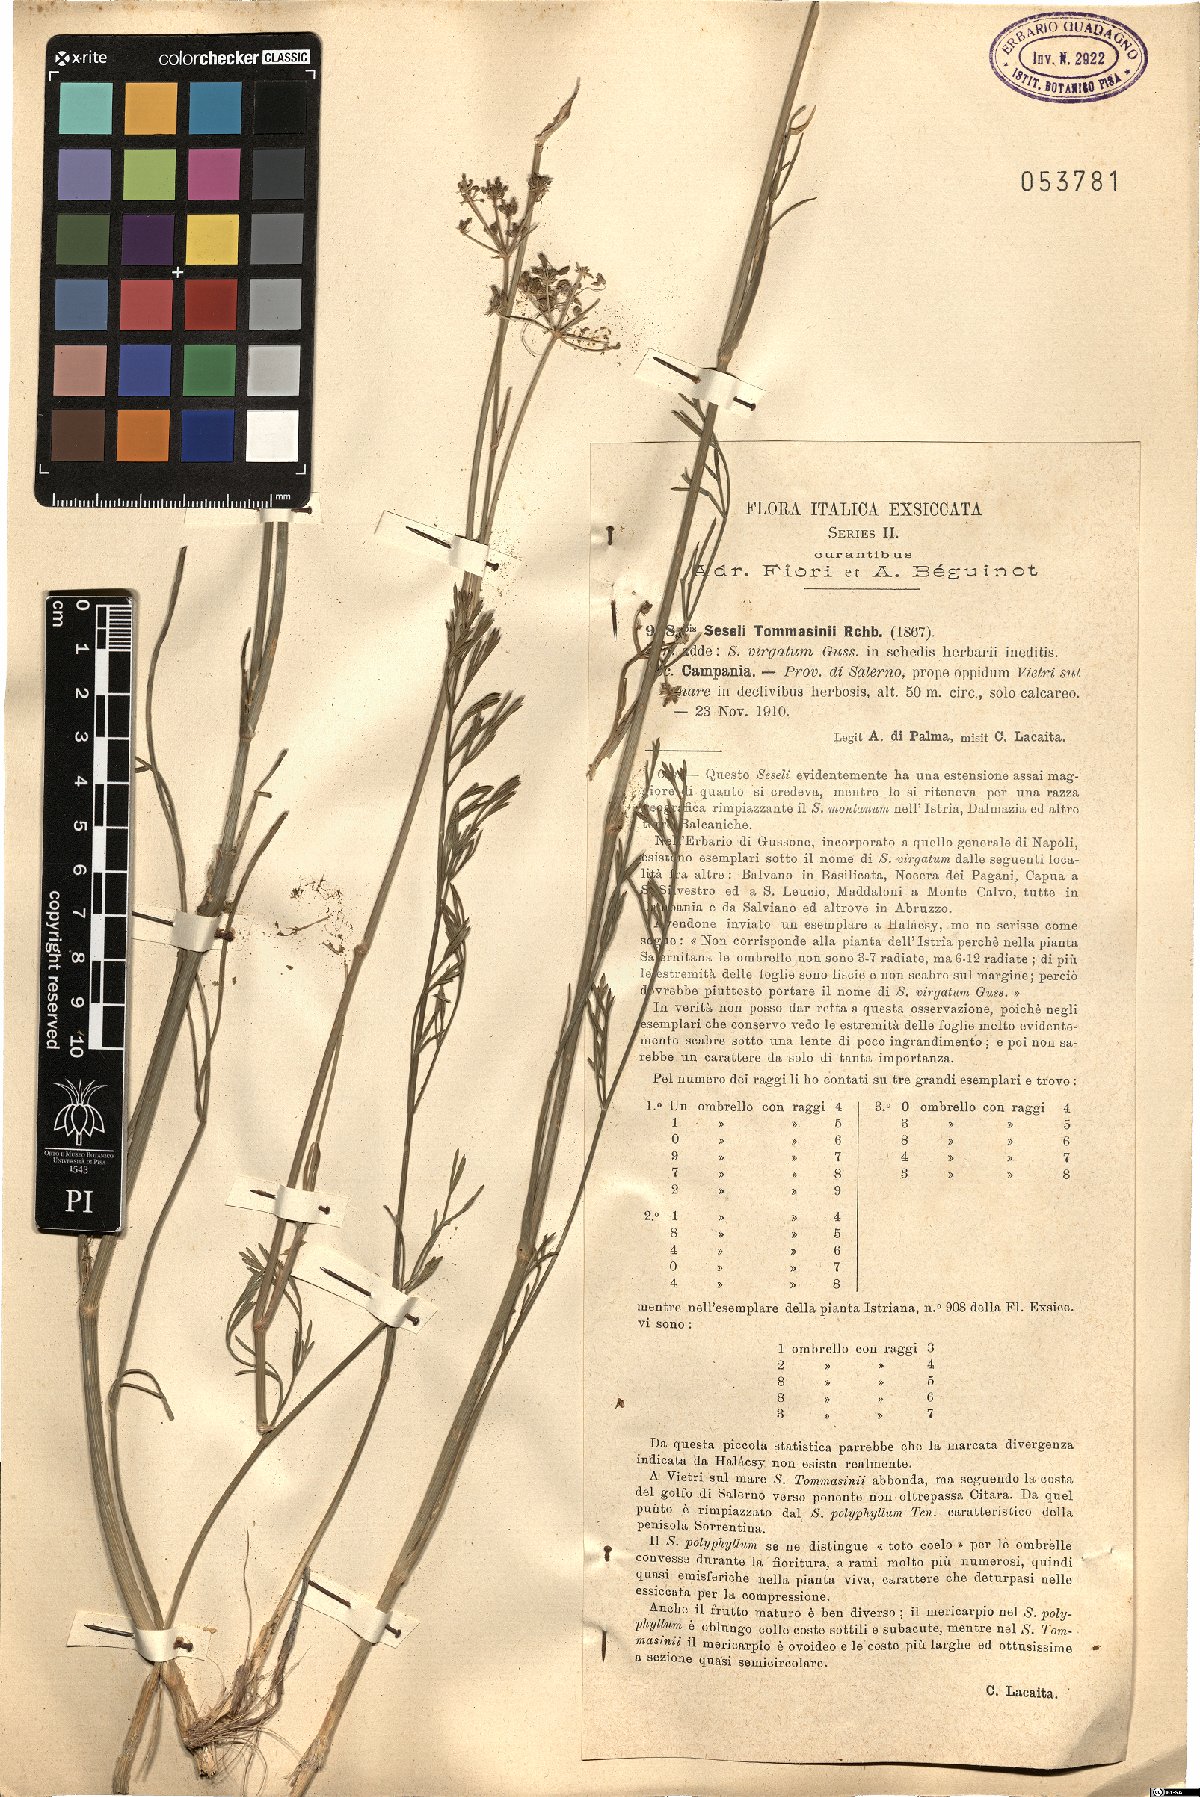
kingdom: Plantae
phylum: Tracheophyta
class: Magnoliopsida
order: Apiales
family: Apiaceae
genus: Seseli
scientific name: Seseli montanum
